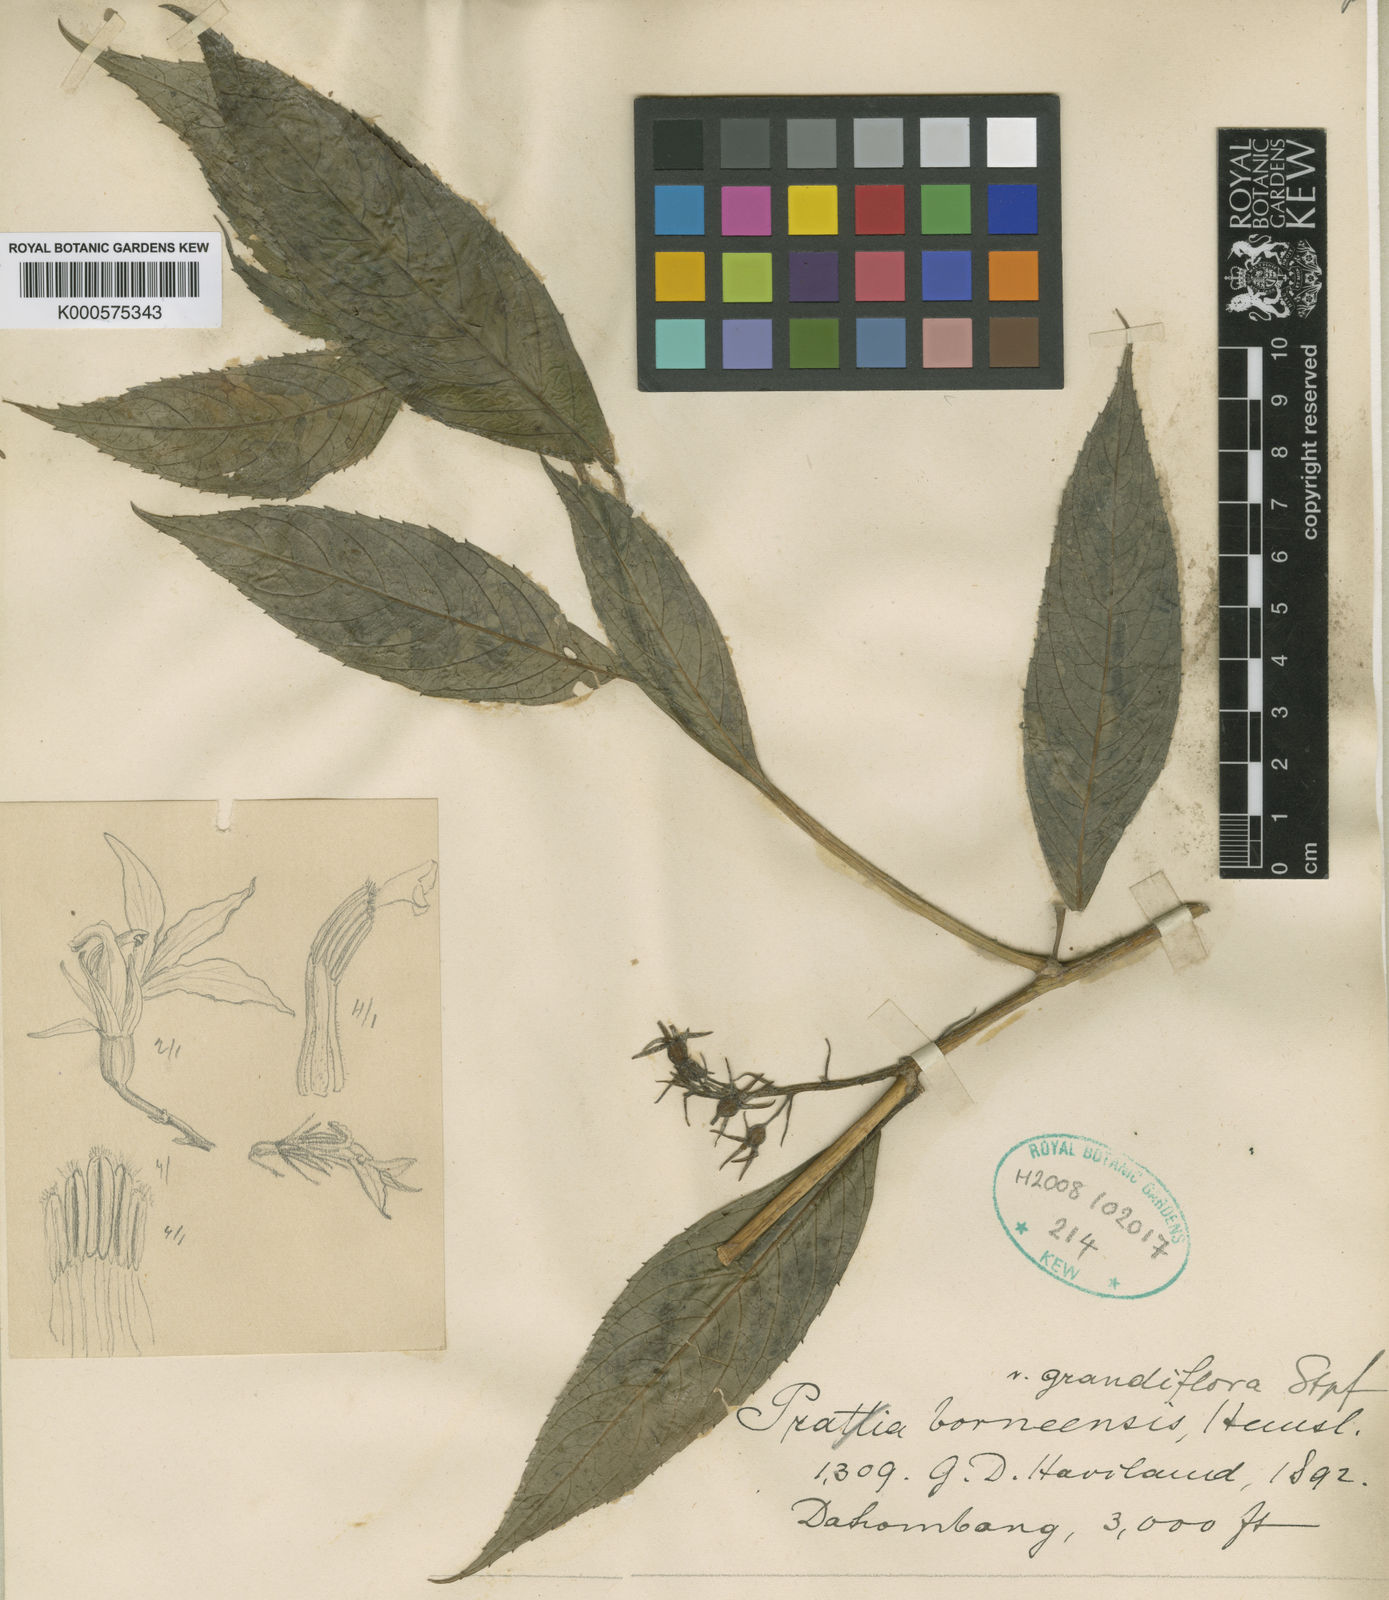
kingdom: Plantae
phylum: Tracheophyta
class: Magnoliopsida
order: Asterales
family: Campanulaceae
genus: Lobelia
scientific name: Lobelia borneensis
